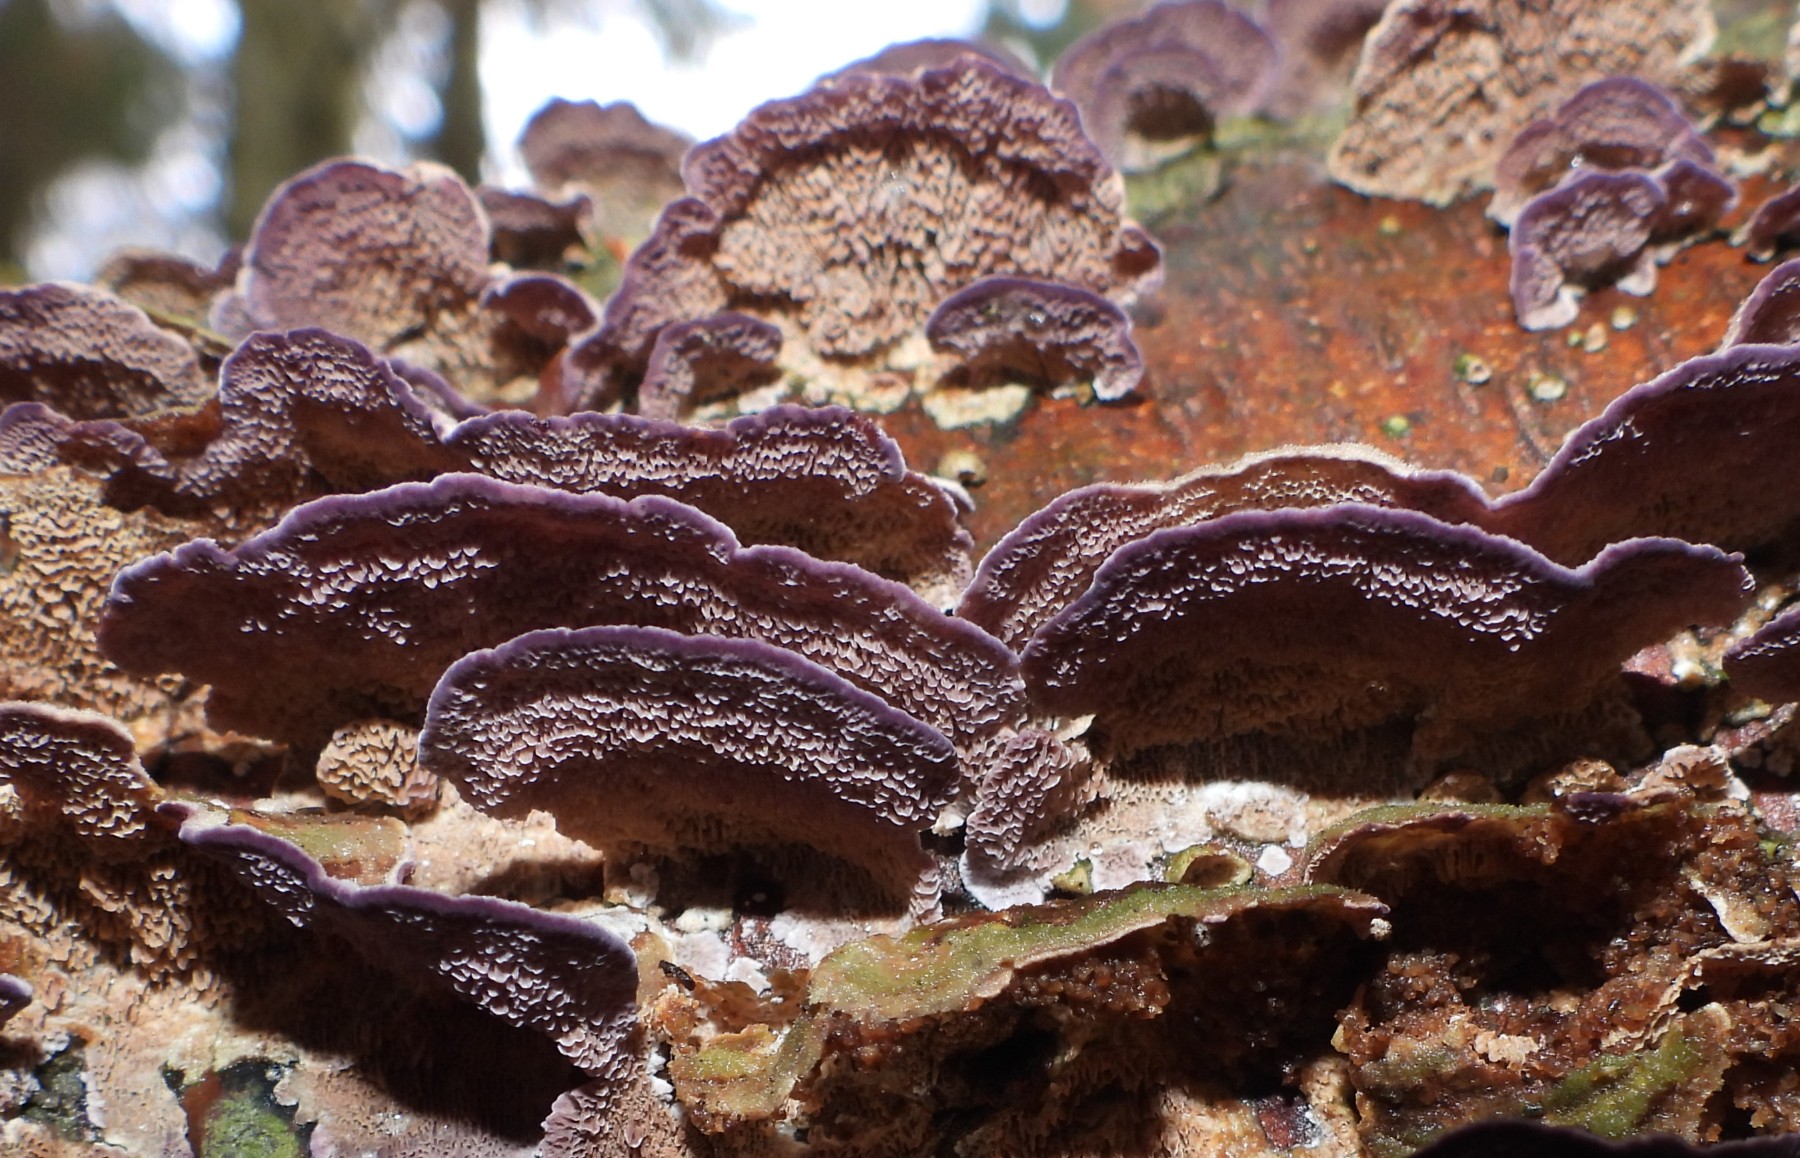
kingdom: Fungi
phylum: Basidiomycota
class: Agaricomycetes
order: Hymenochaetales
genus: Trichaptum
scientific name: Trichaptum fuscoviolaceum
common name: tandet violporesvamp
